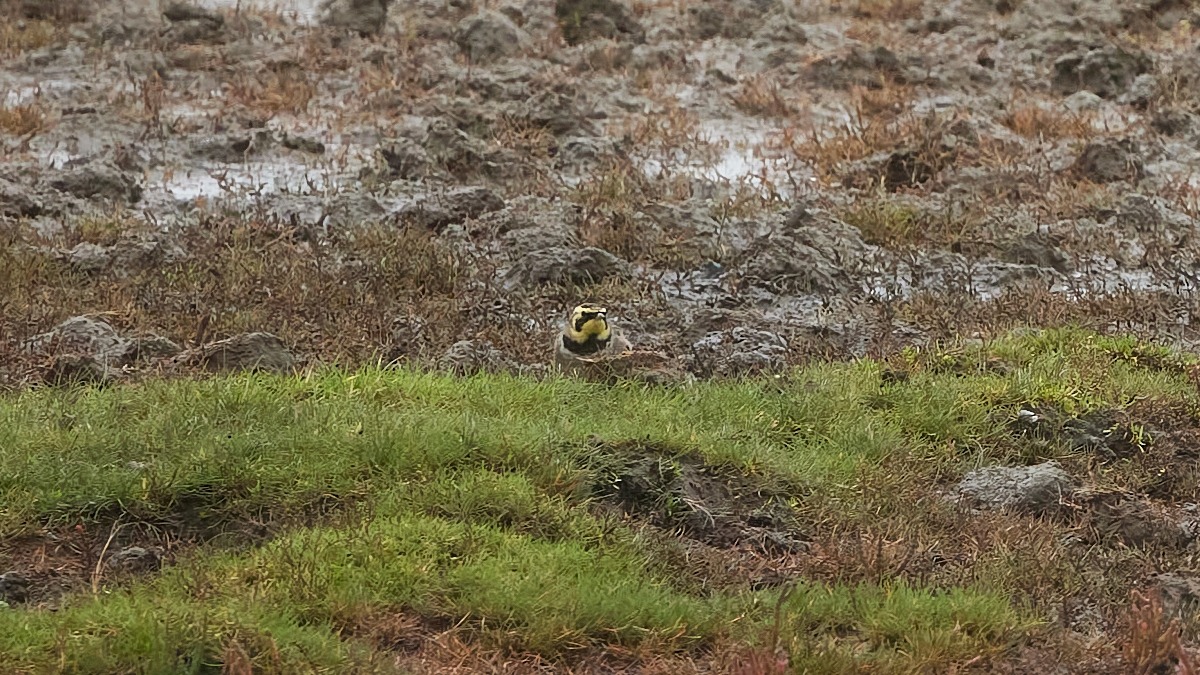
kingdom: Animalia
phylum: Chordata
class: Aves
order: Passeriformes
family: Alaudidae
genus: Eremophila
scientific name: Eremophila alpestris
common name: Bjerglærke
